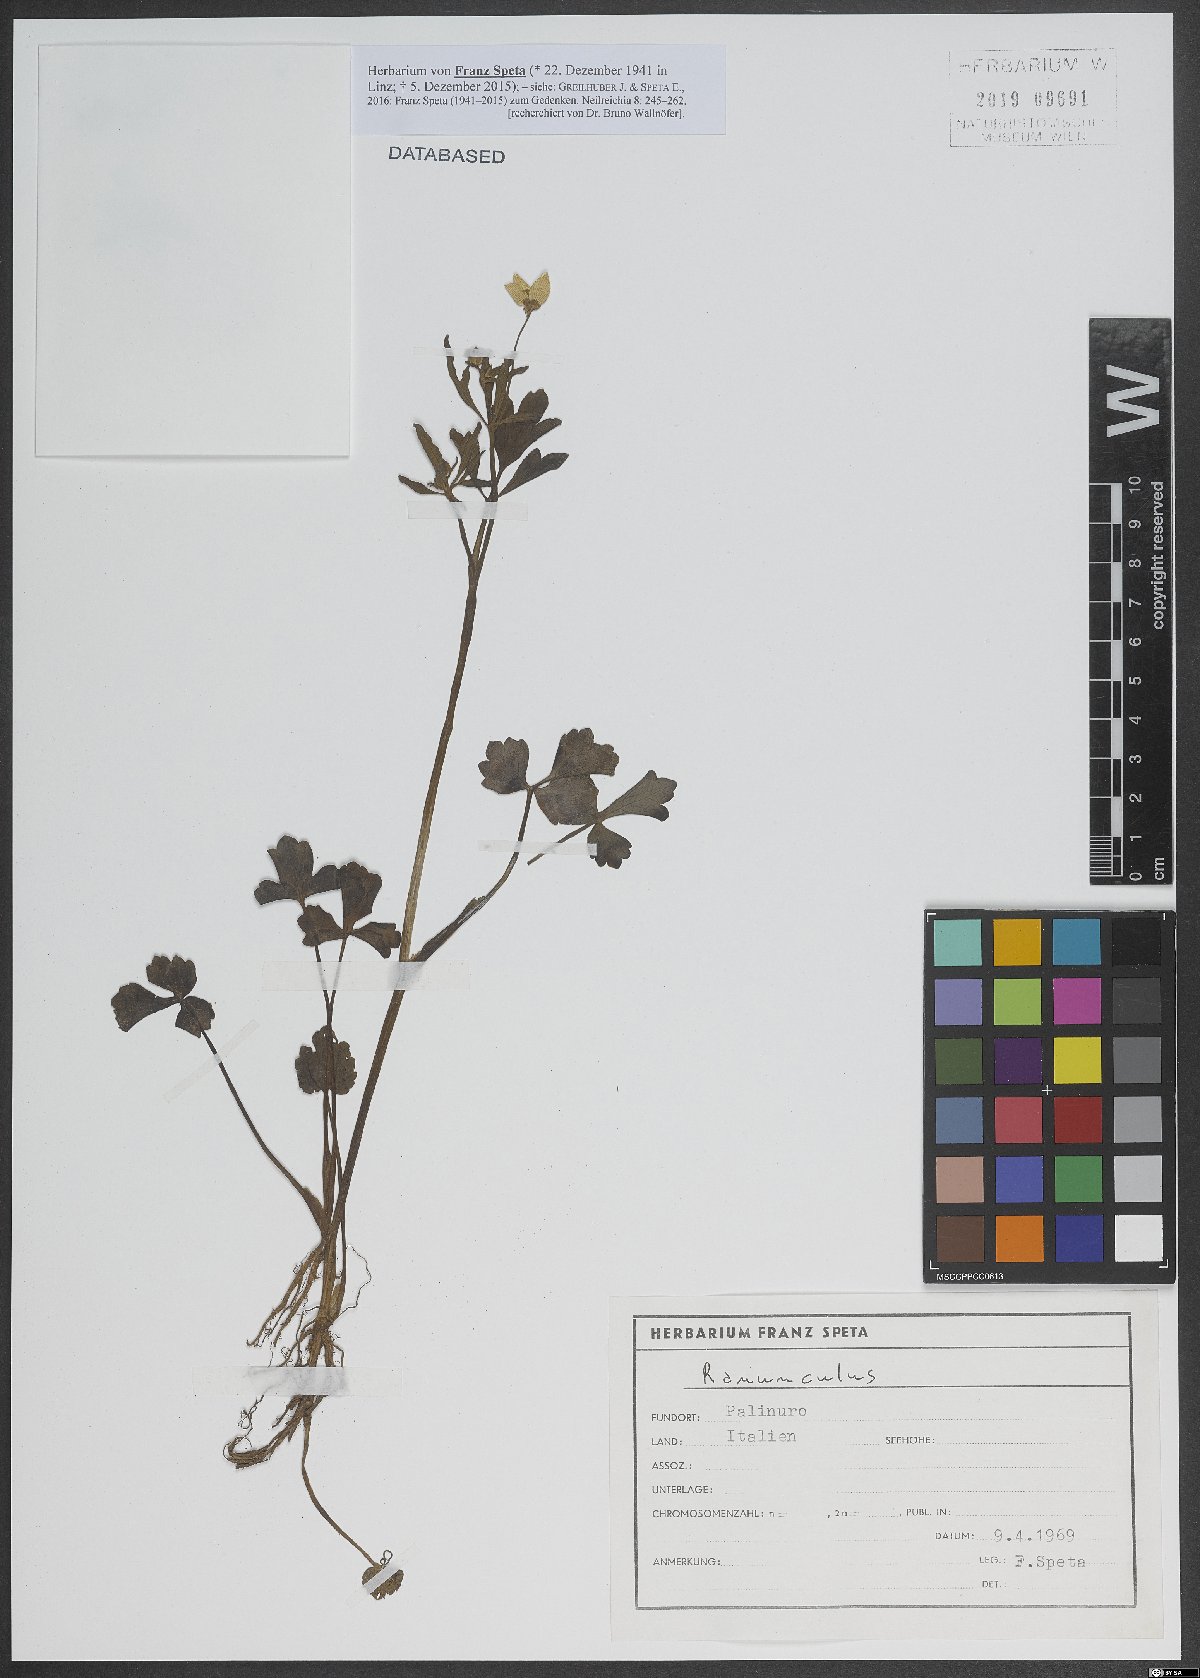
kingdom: Plantae
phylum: Tracheophyta
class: Magnoliopsida
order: Ranunculales
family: Ranunculaceae
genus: Ranunculus
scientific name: Ranunculus
